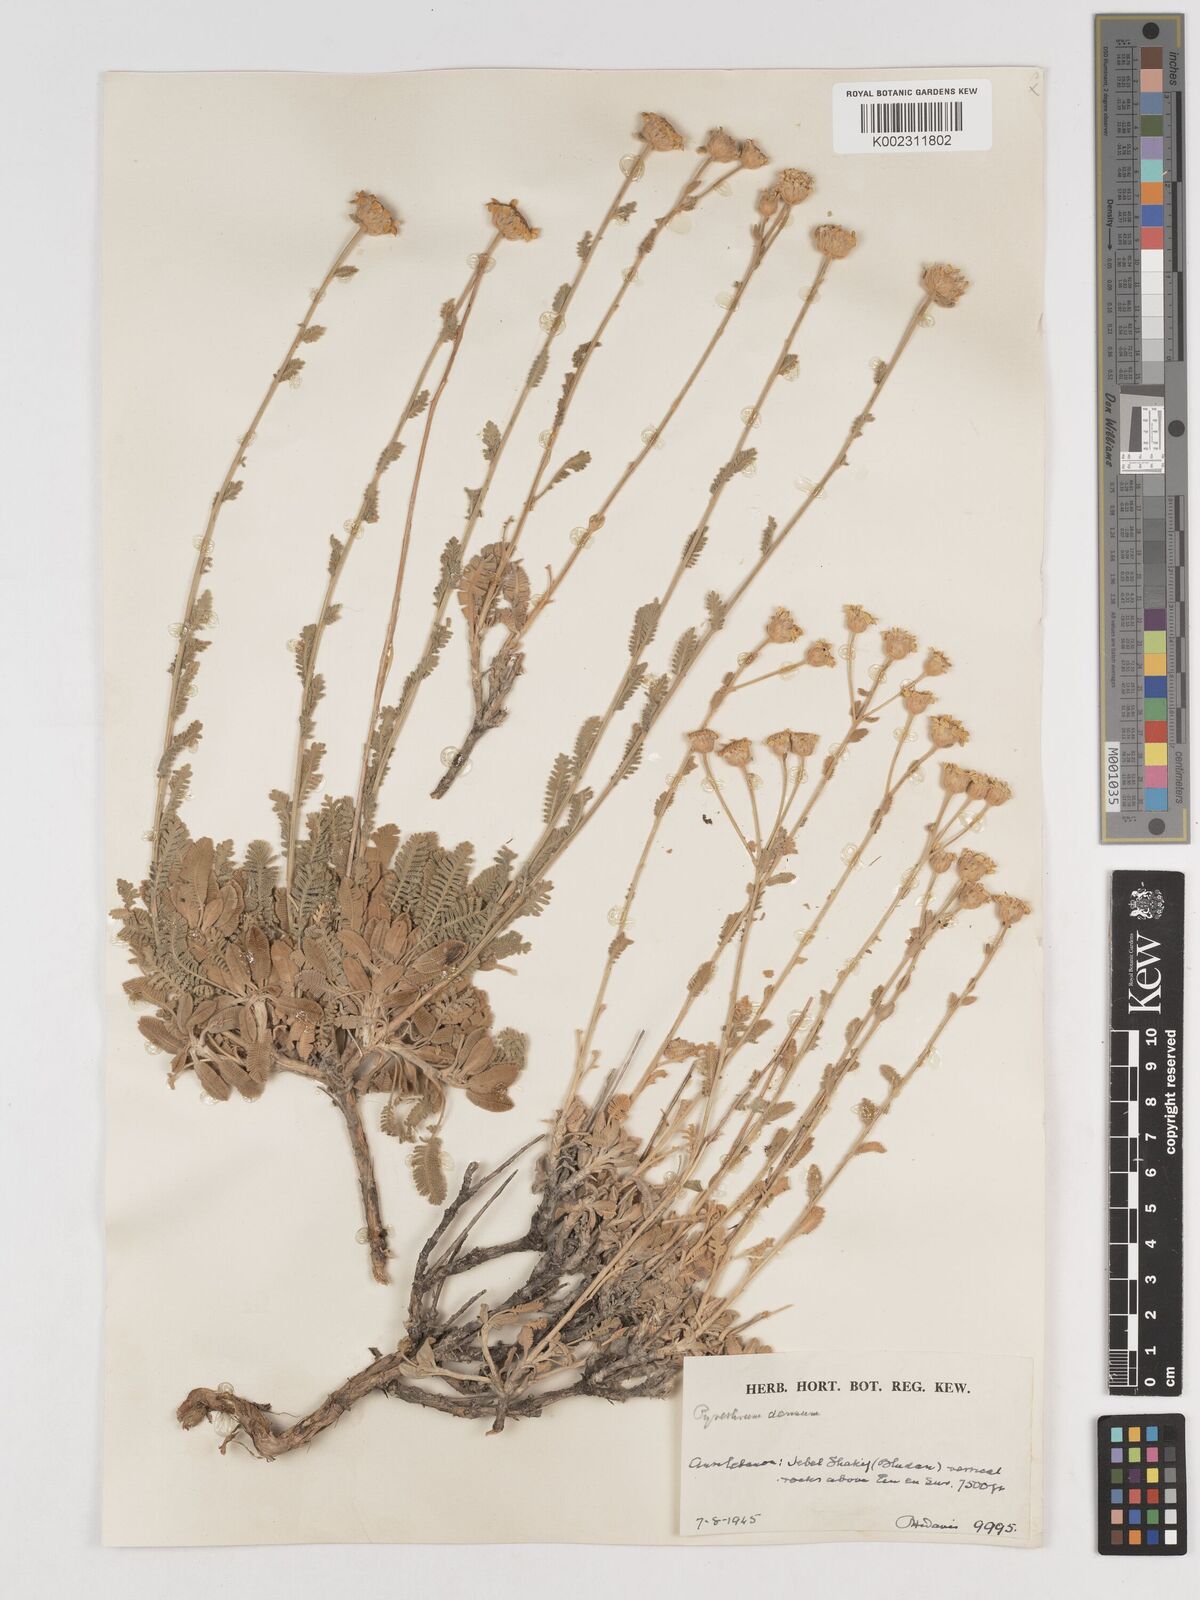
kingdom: Plantae
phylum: Tracheophyta
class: Magnoliopsida
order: Asterales
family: Asteraceae
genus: Tanacetum
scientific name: Tanacetum densum
